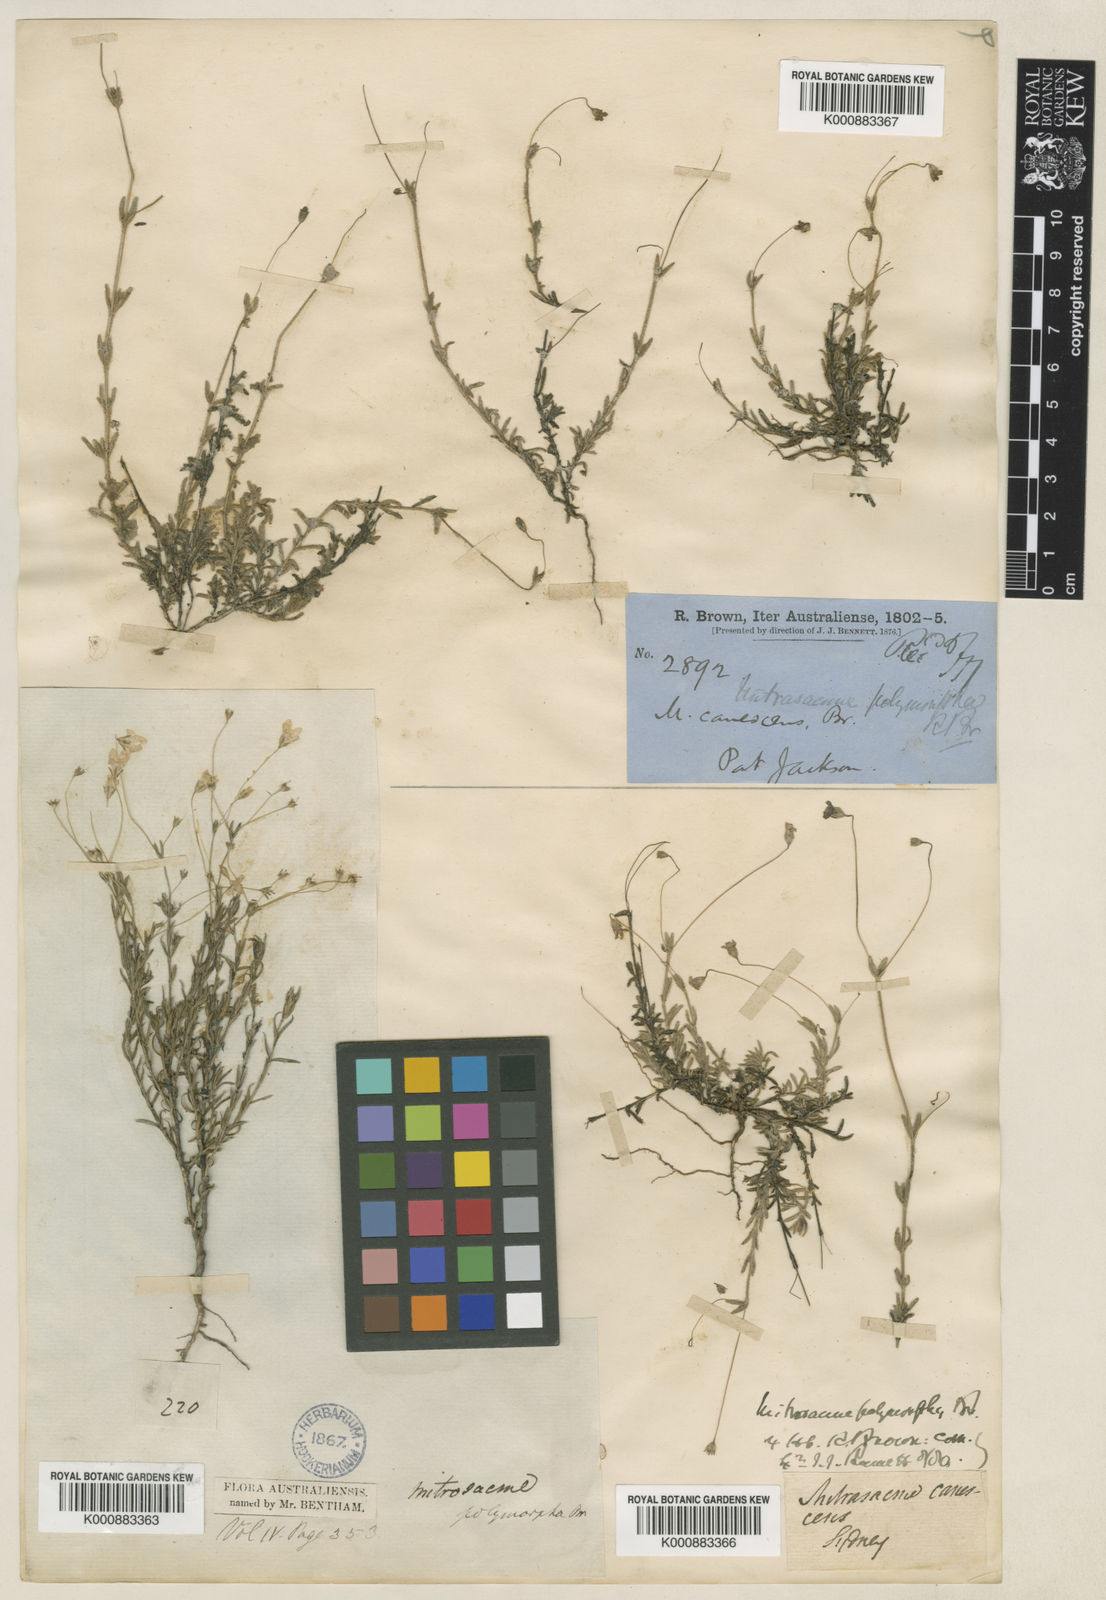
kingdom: Plantae
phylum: Tracheophyta
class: Magnoliopsida
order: Gentianales
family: Loganiaceae
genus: Mitrasacme
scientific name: Mitrasacme polymorpha
